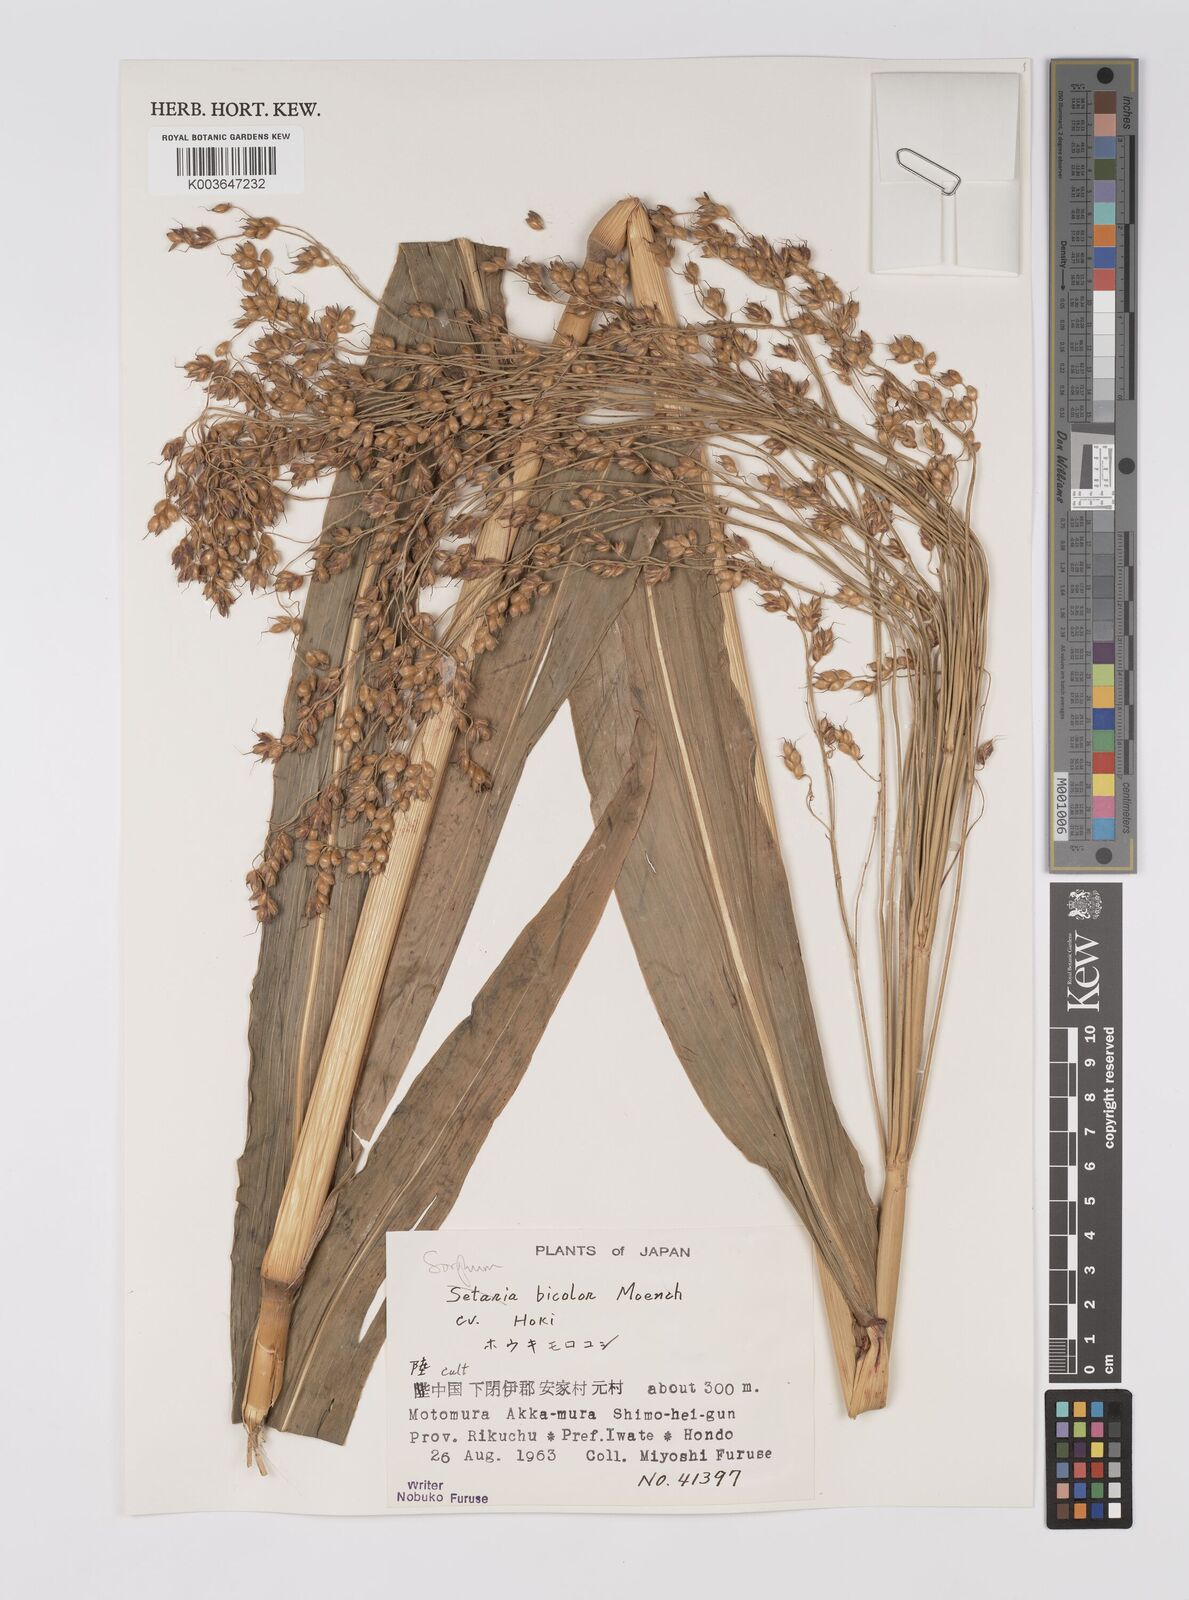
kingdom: Plantae
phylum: Tracheophyta
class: Liliopsida
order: Poales
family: Poaceae
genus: Hyparrhenia
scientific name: Hyparrhenia dichroa
